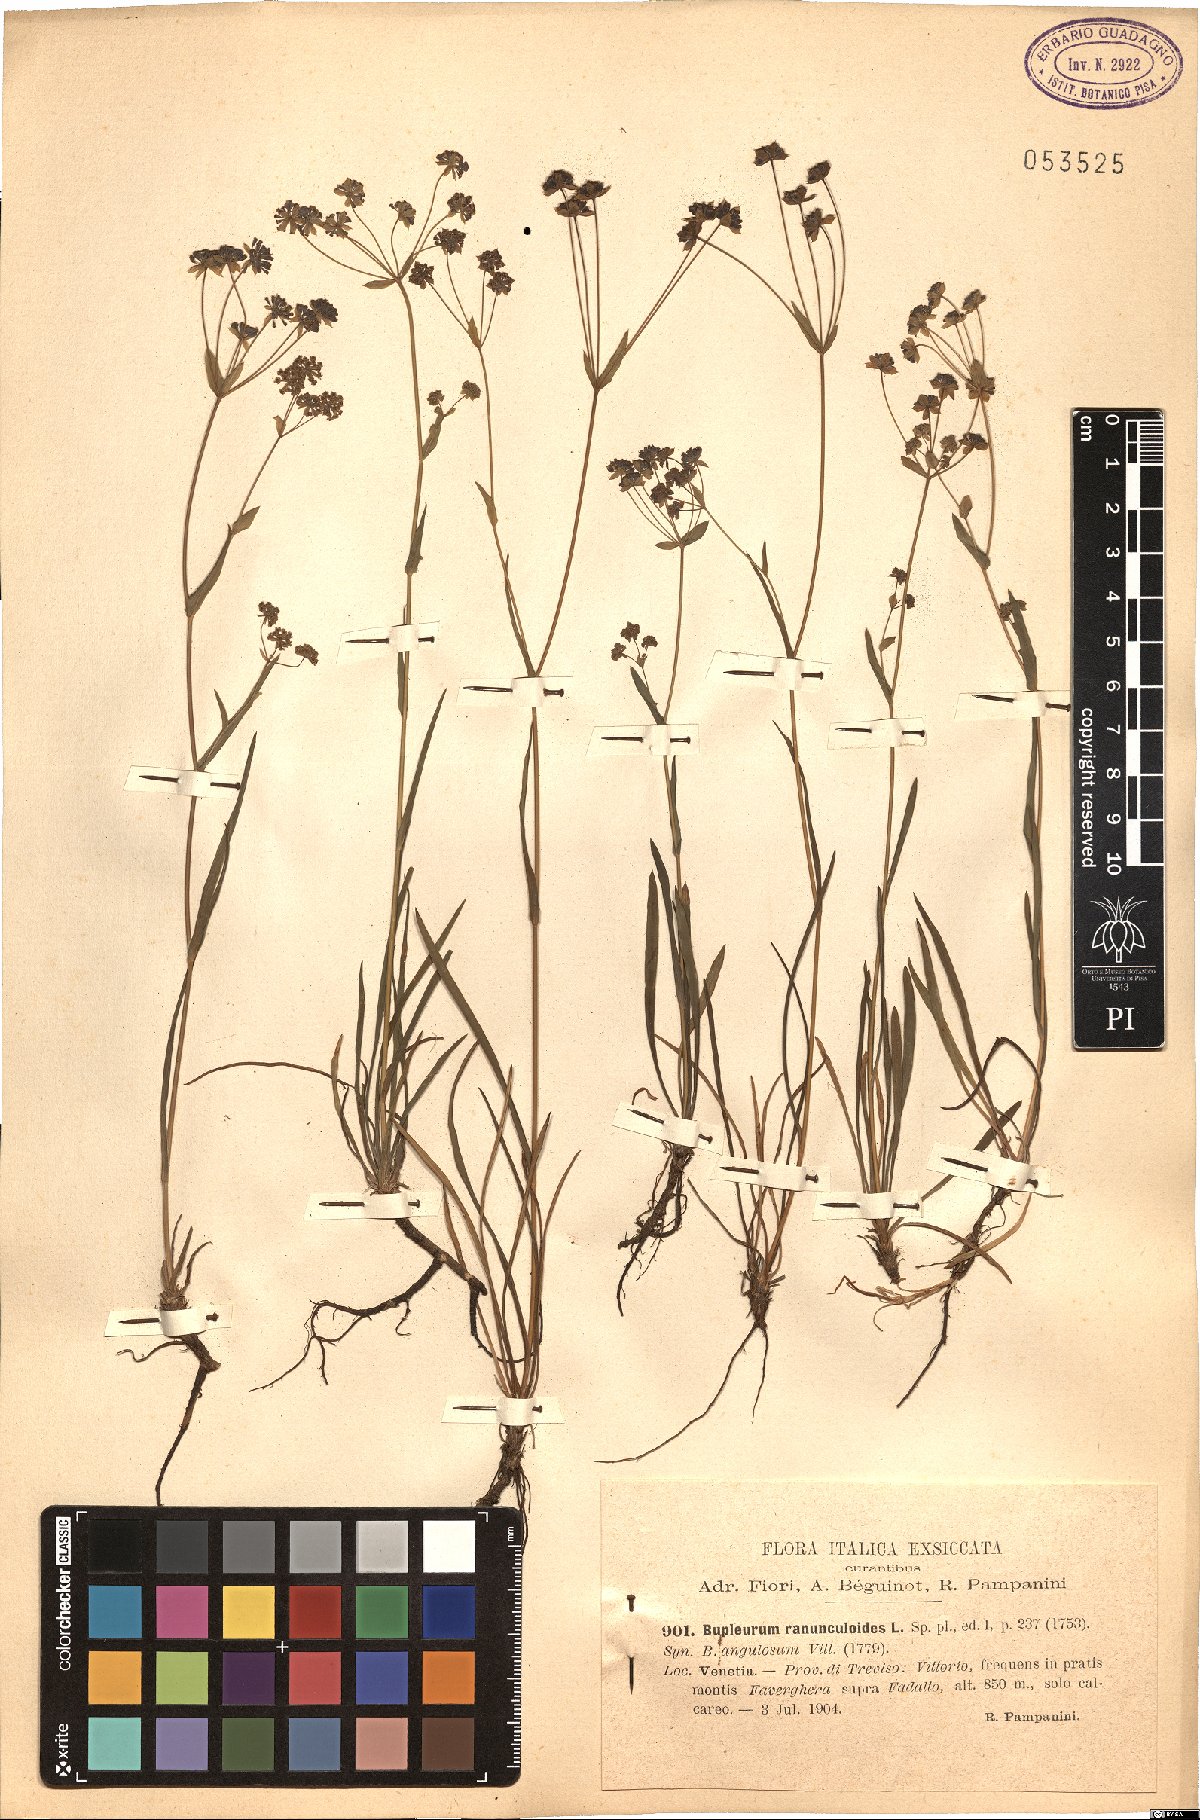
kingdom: Plantae
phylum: Tracheophyta
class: Magnoliopsida
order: Apiales
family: Apiaceae
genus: Bupleurum
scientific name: Bupleurum ranunculoides
